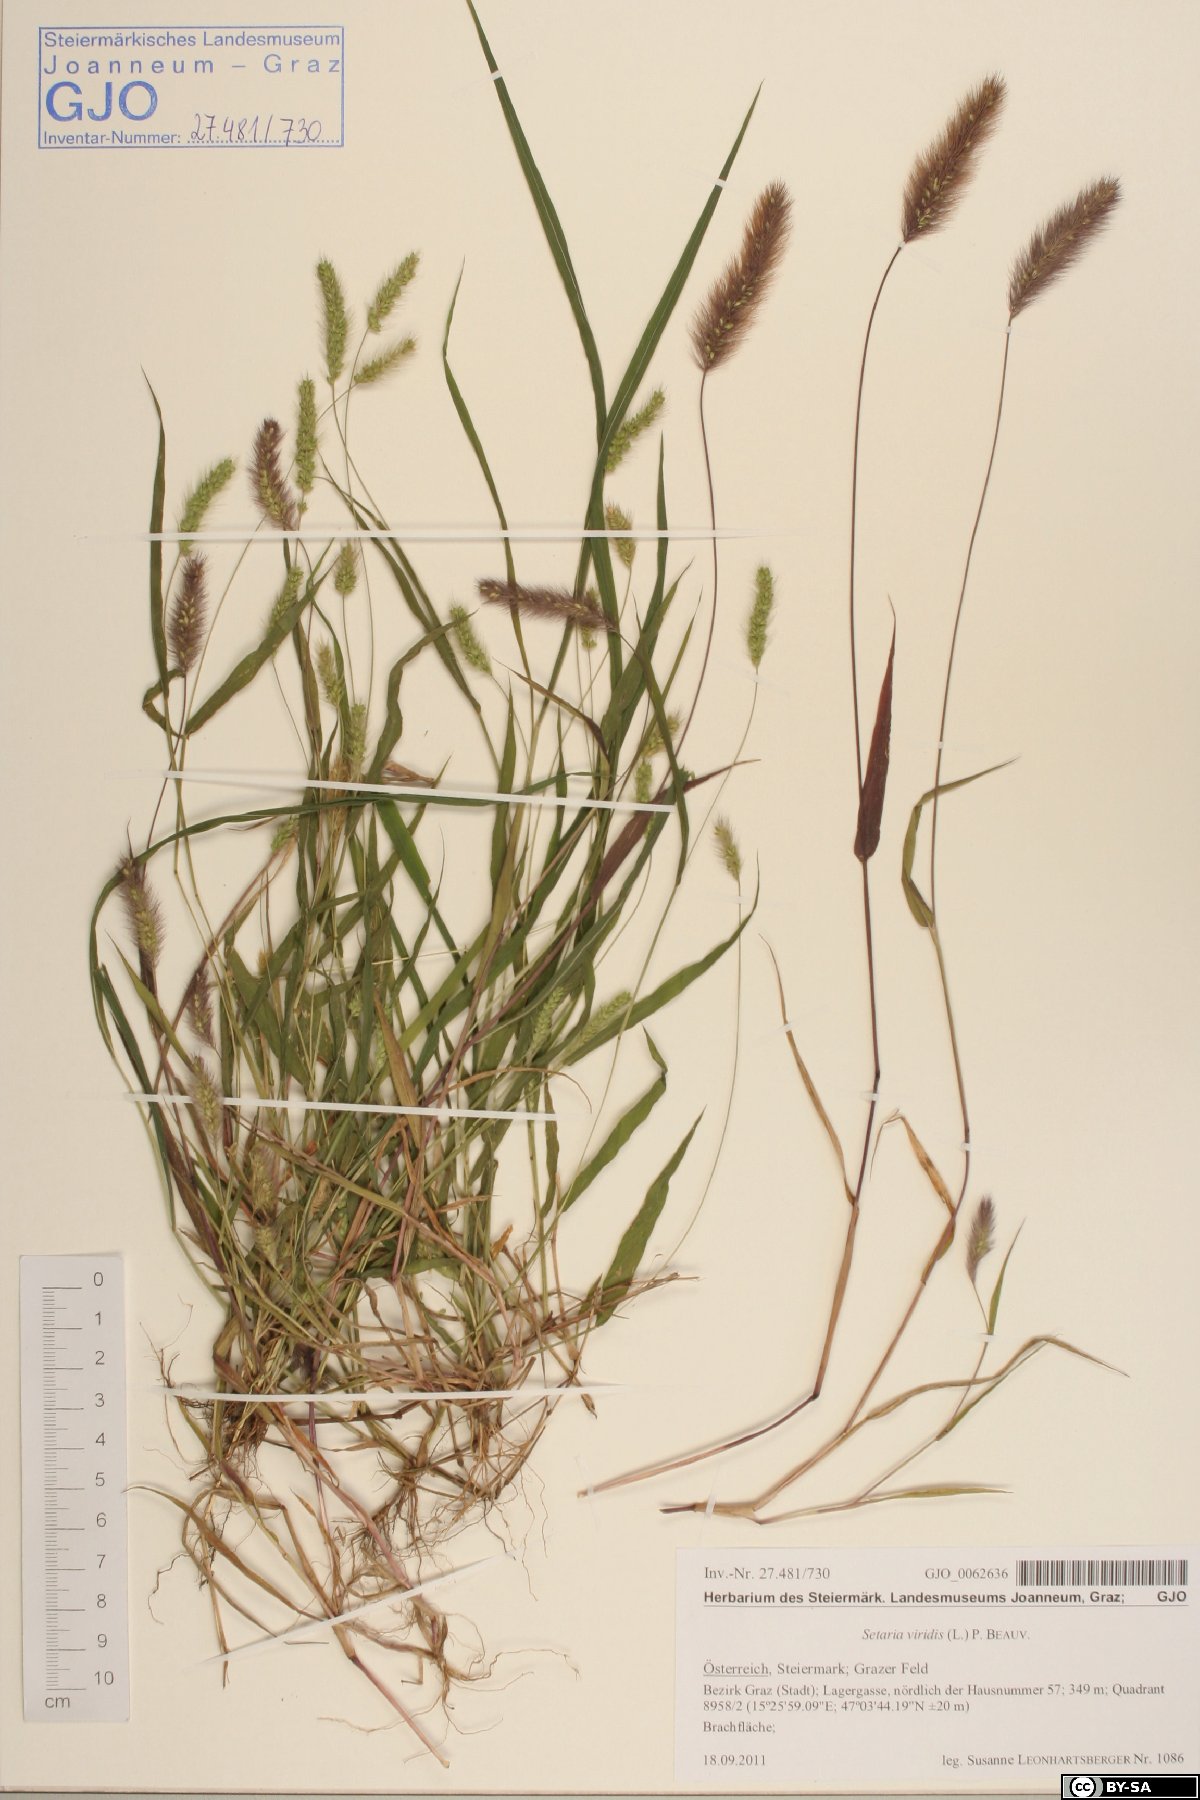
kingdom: Plantae
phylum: Tracheophyta
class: Liliopsida
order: Poales
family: Poaceae
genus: Setaria
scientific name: Setaria viridis
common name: Green bristlegrass
